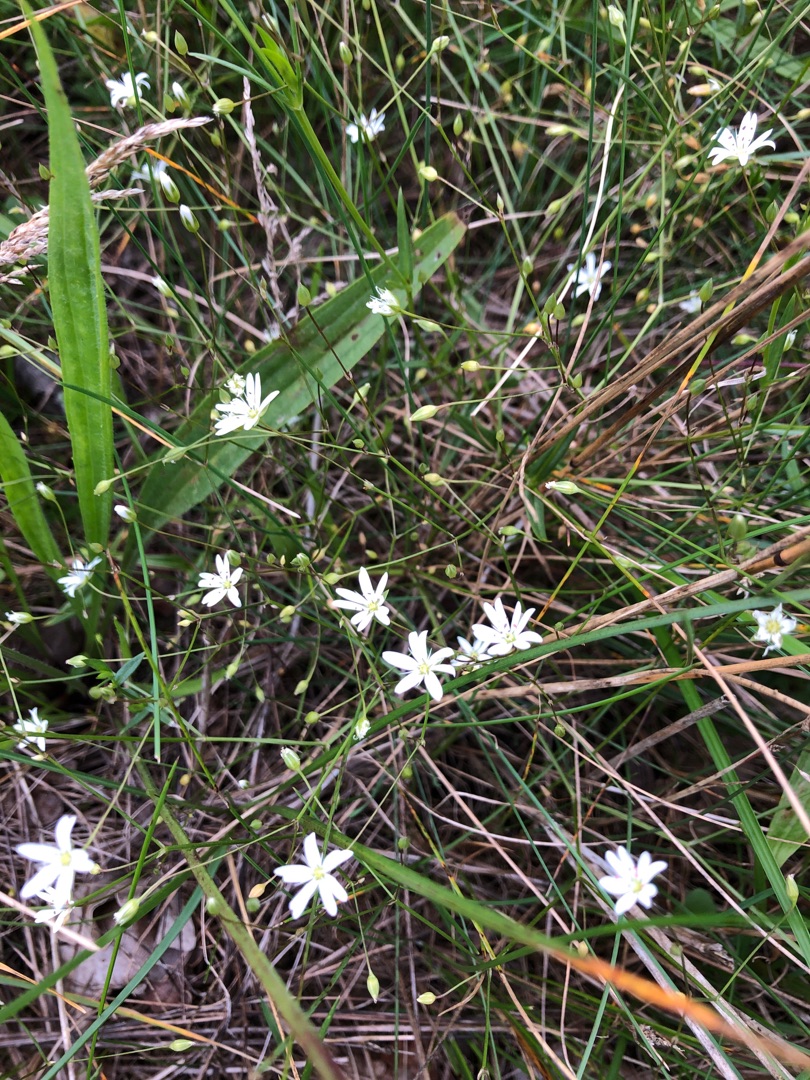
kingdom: Plantae
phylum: Tracheophyta
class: Magnoliopsida
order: Caryophyllales
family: Caryophyllaceae
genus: Stellaria
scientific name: Stellaria graminea
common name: Græsbladet fladstjerne
